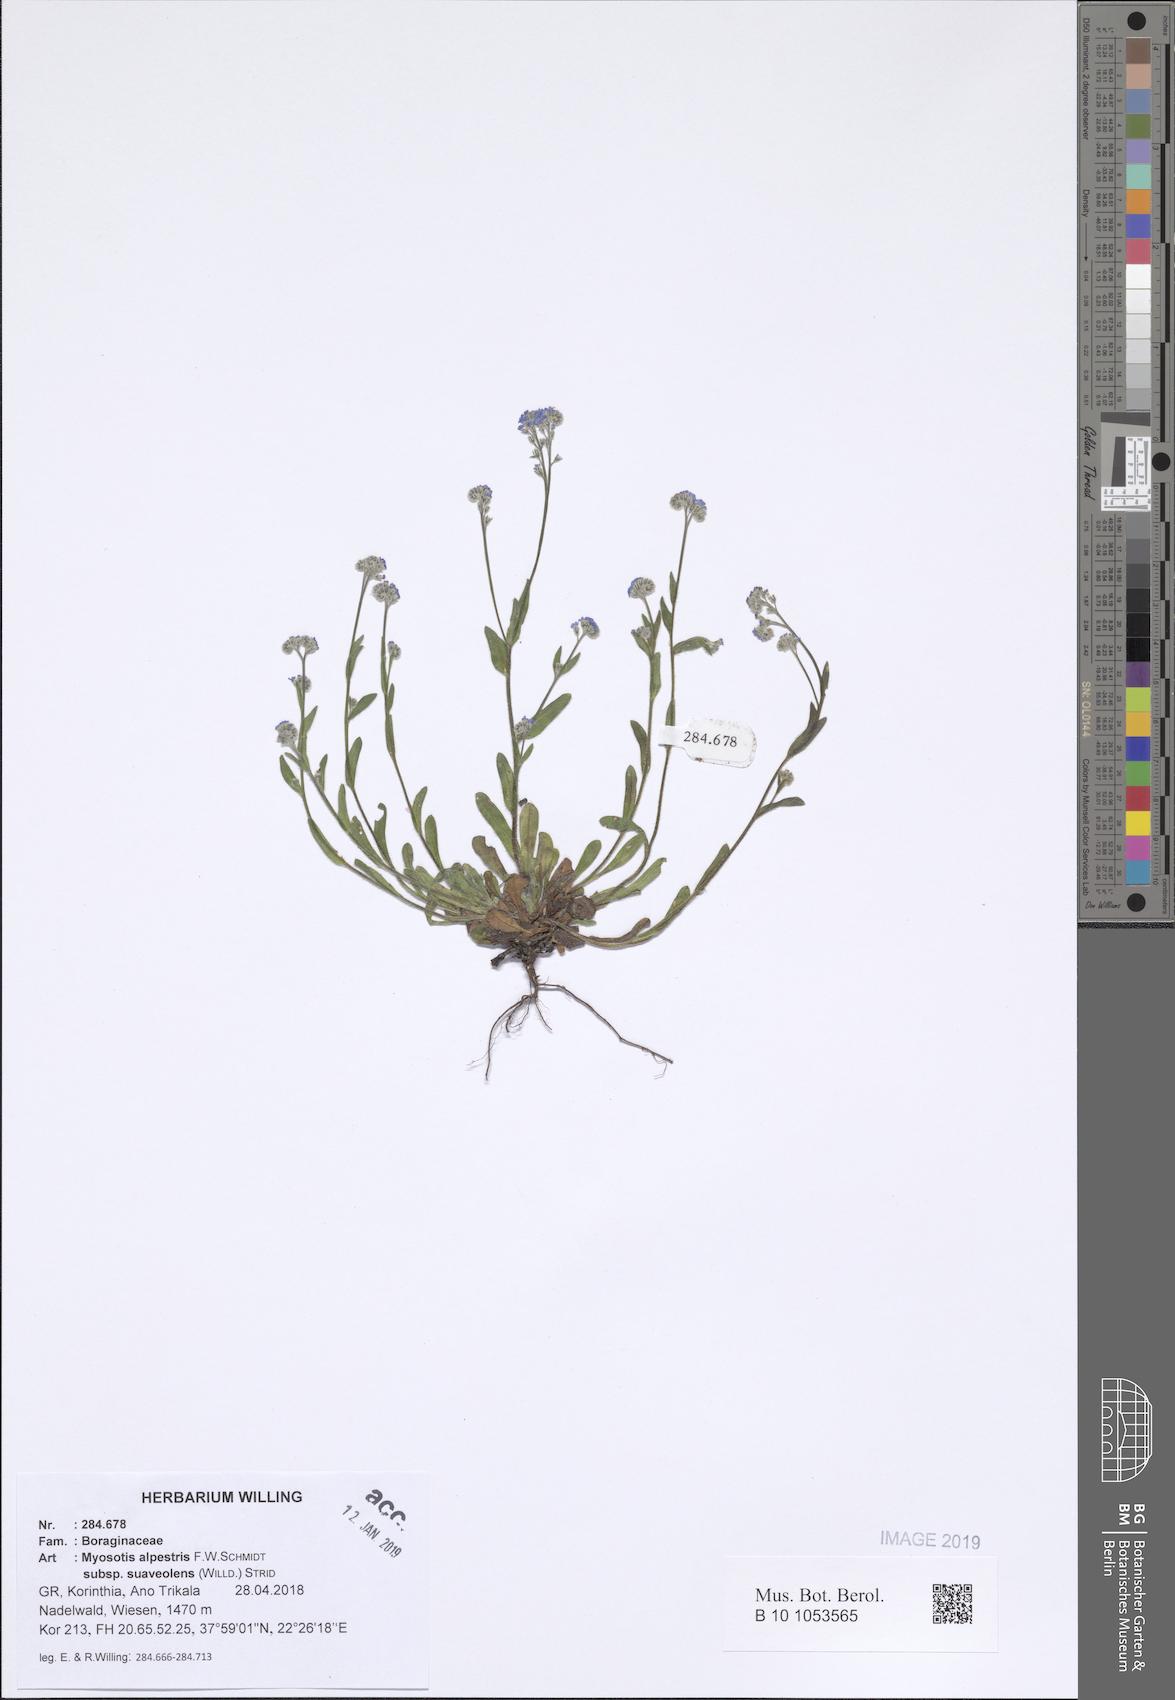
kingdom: Plantae
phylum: Tracheophyta
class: Magnoliopsida
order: Boraginales
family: Boraginaceae
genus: Myosotis
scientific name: Myosotis alpestris
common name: Alpine forget-me-not
